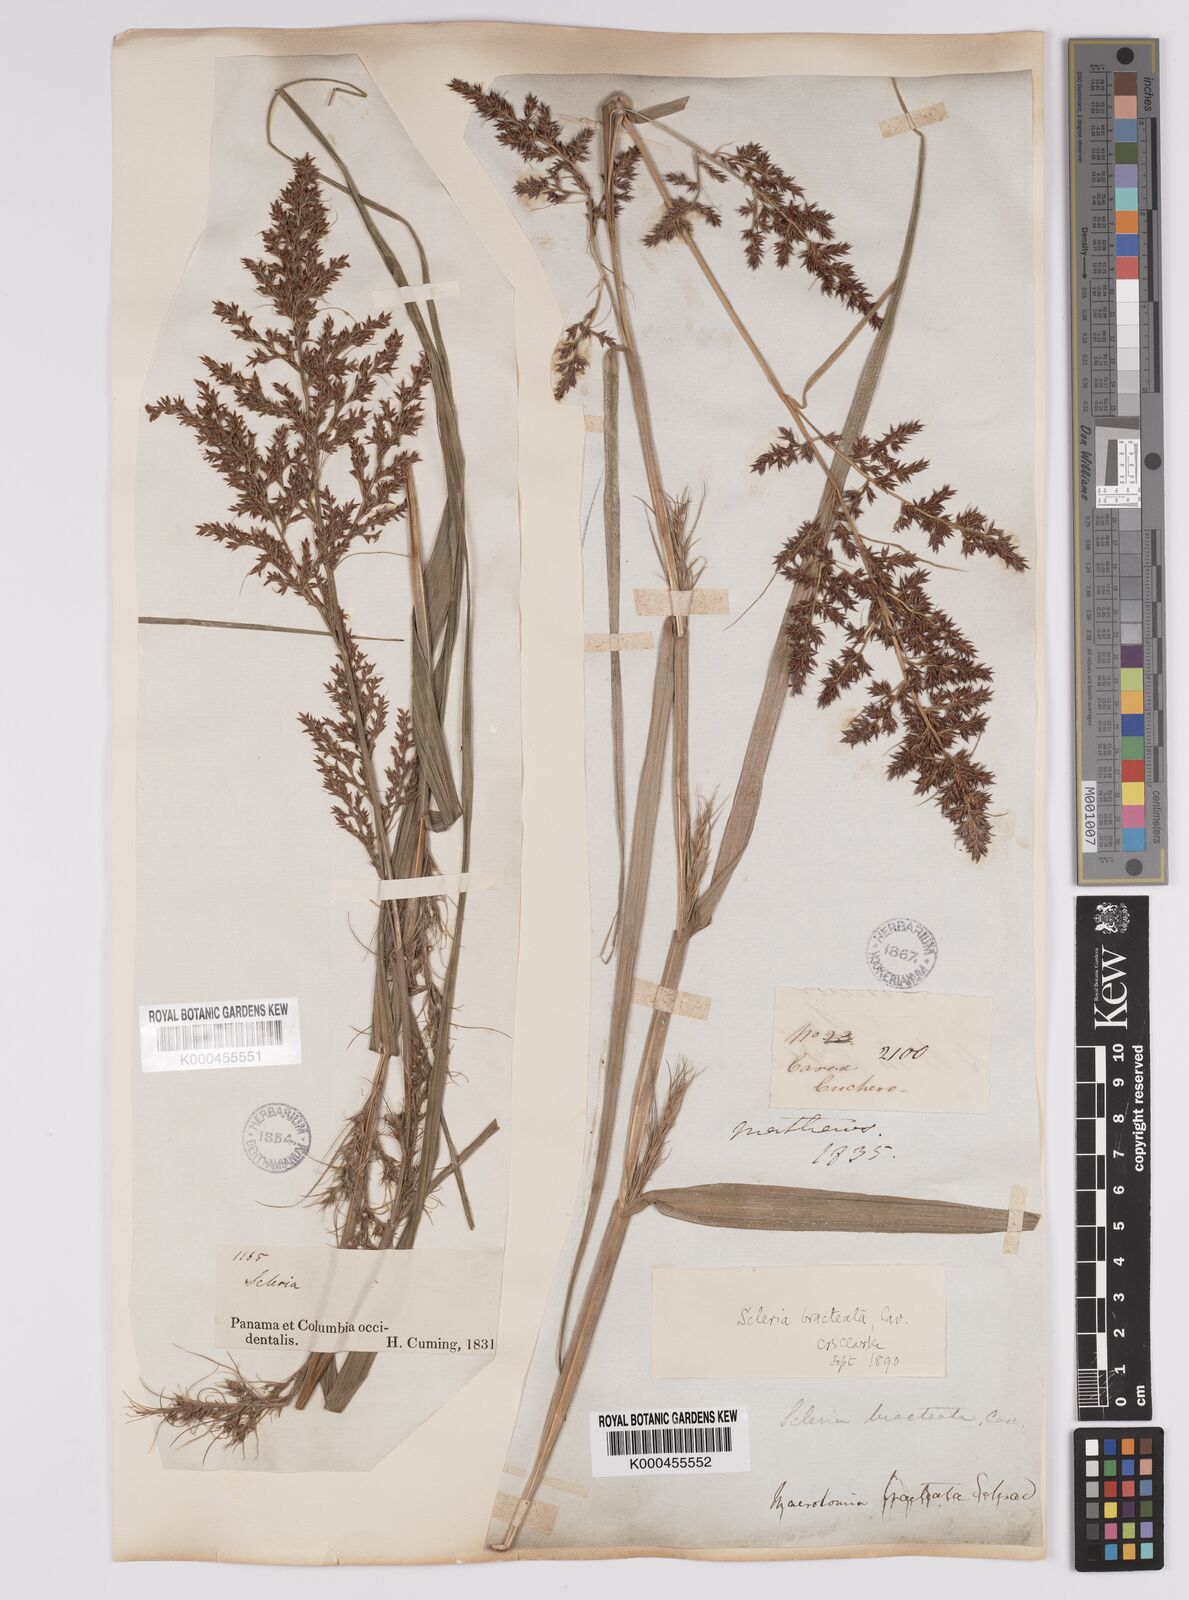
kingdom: Plantae
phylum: Tracheophyta
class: Liliopsida
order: Poales
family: Cyperaceae
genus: Scleria
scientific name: Scleria bracteata
